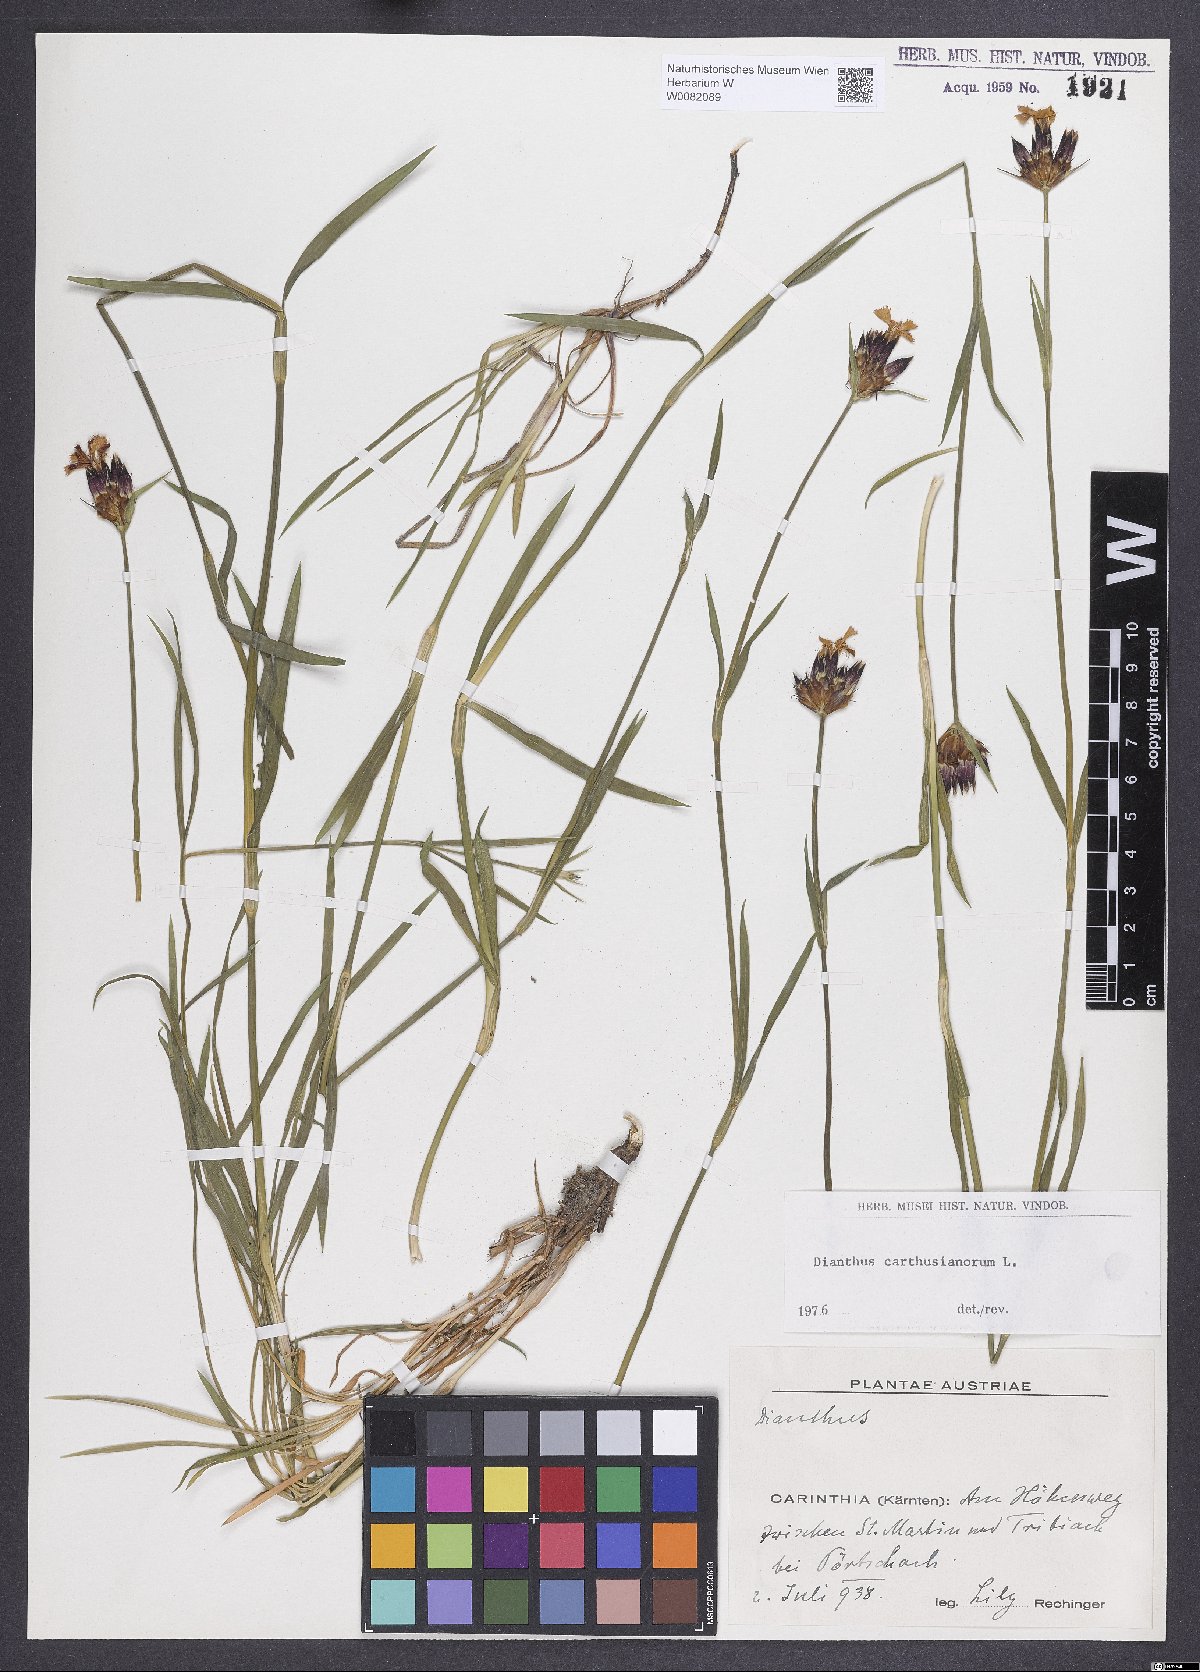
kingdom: Plantae
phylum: Tracheophyta
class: Magnoliopsida
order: Caryophyllales
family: Caryophyllaceae
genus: Dianthus
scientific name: Dianthus carthusianorum
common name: Carthusian pink
